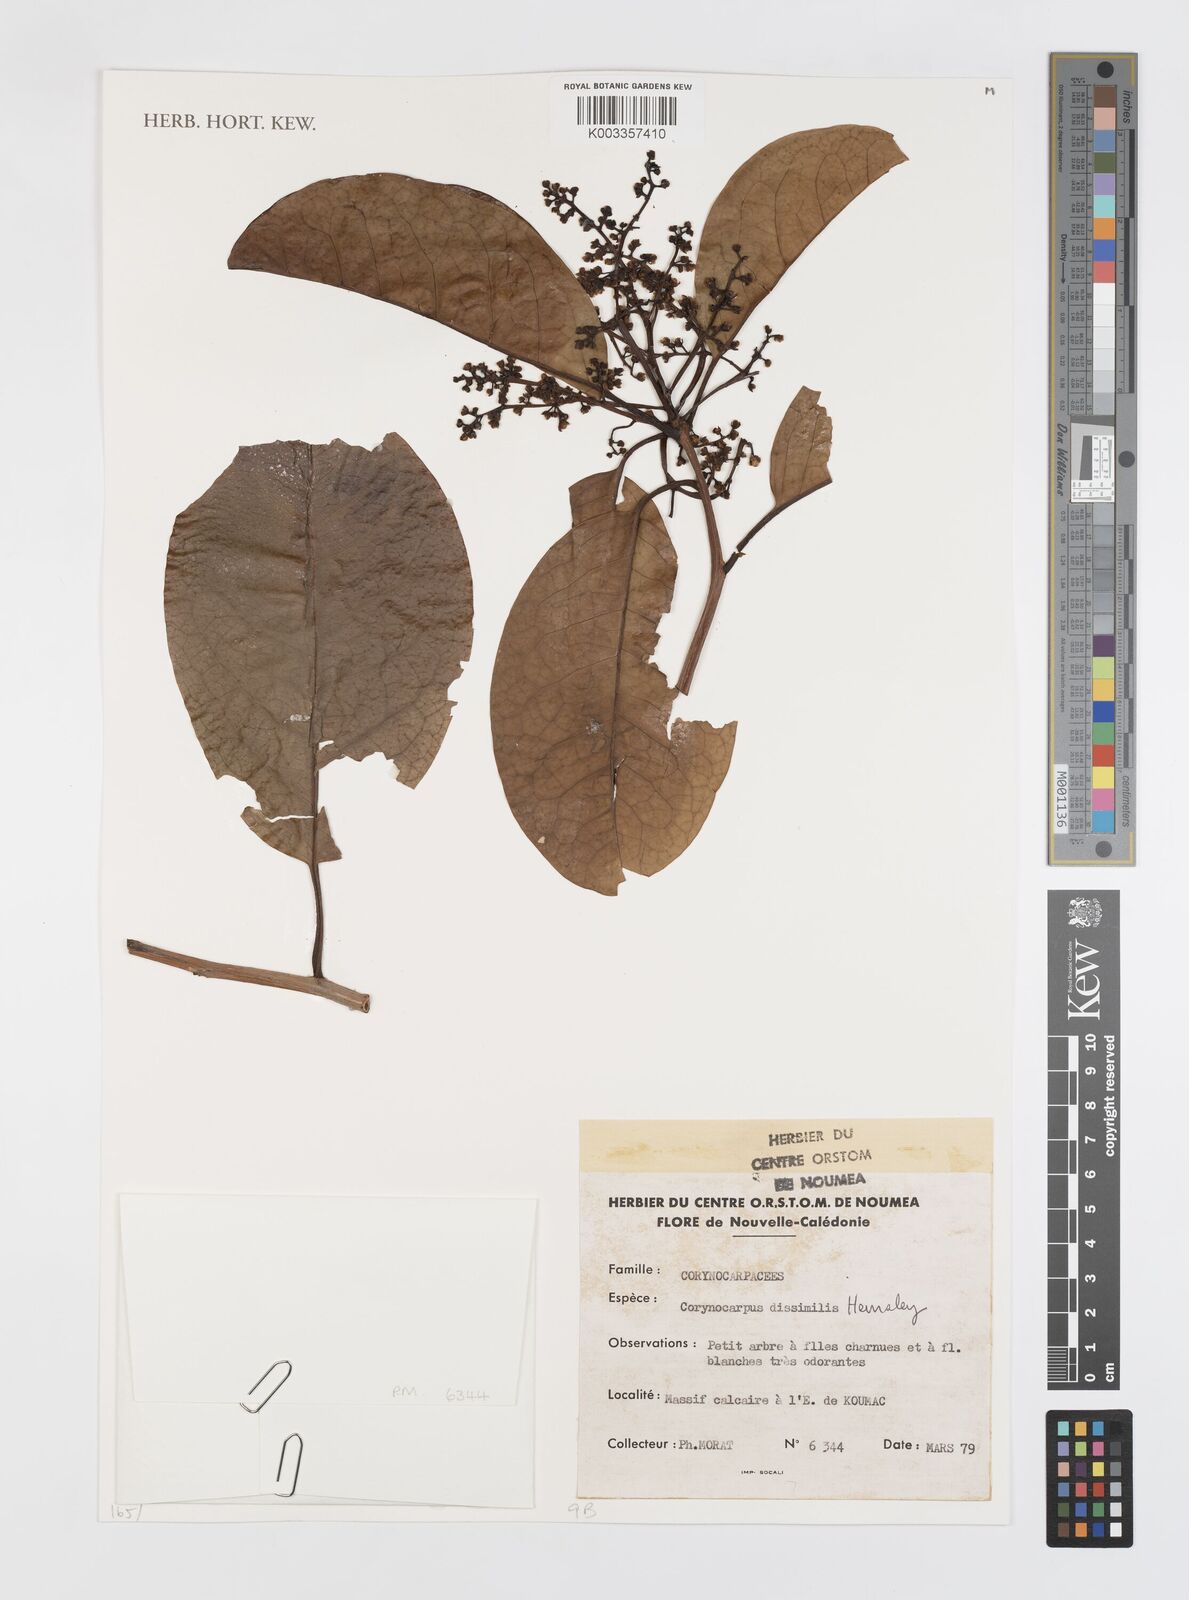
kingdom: Plantae
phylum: Tracheophyta
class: Magnoliopsida
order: Cucurbitales
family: Corynocarpaceae
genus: Corynocarpus
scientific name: Corynocarpus dissimilis
